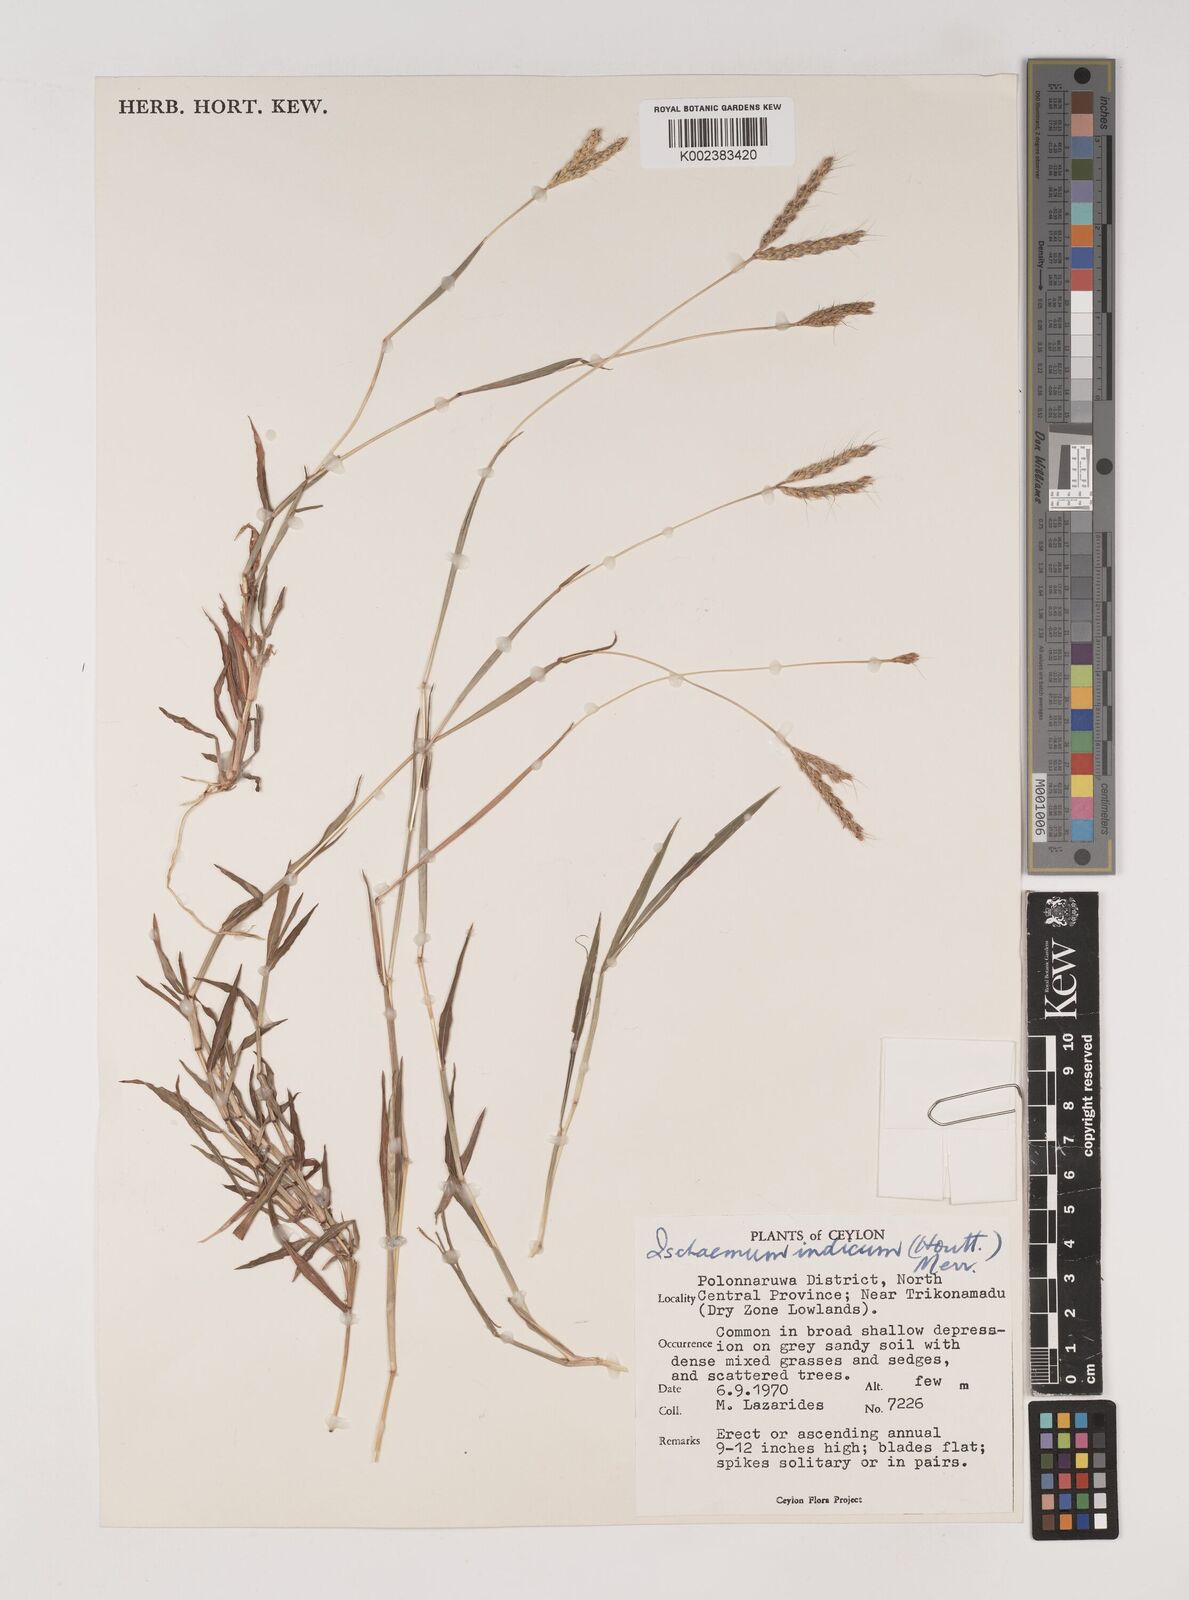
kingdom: Plantae
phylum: Tracheophyta
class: Liliopsida
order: Poales
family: Poaceae
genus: Polytrias
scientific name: Polytrias indica
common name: Indian murainagrass
